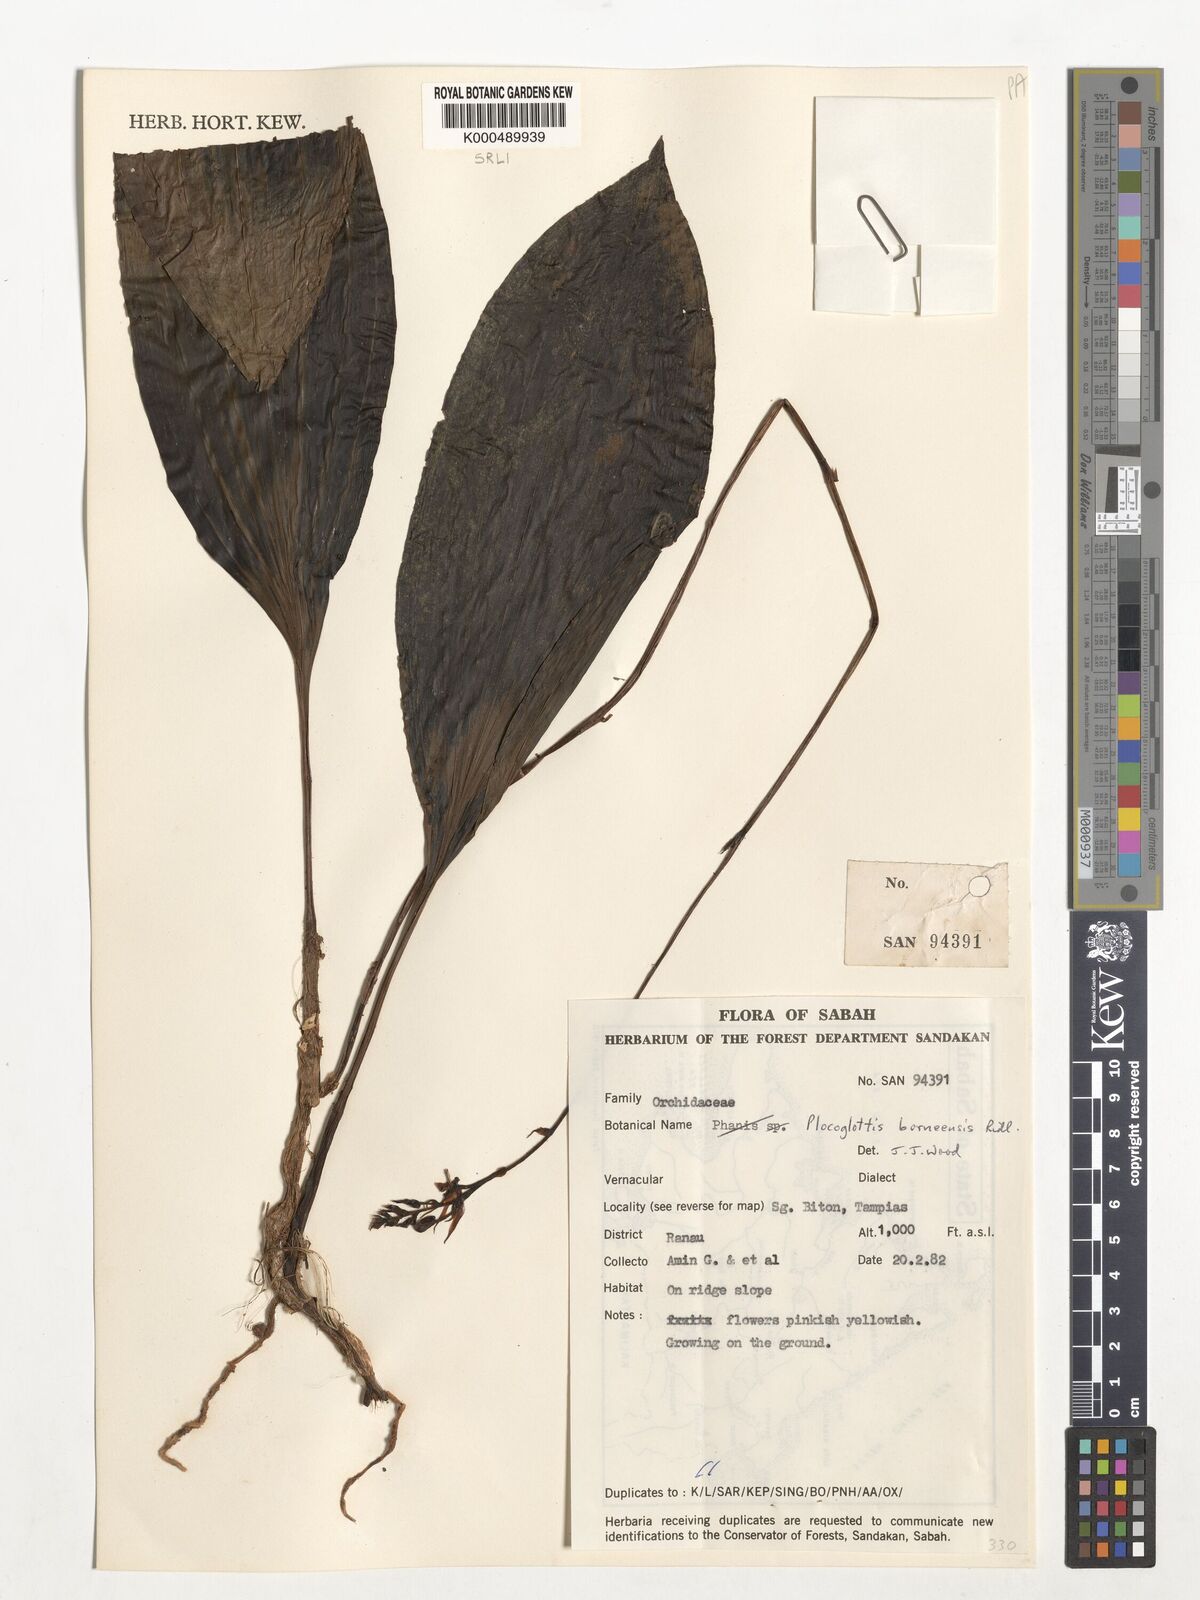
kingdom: Plantae
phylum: Tracheophyta
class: Liliopsida
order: Asparagales
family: Orchidaceae
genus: Plocoglottis
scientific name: Plocoglottis borneensis
